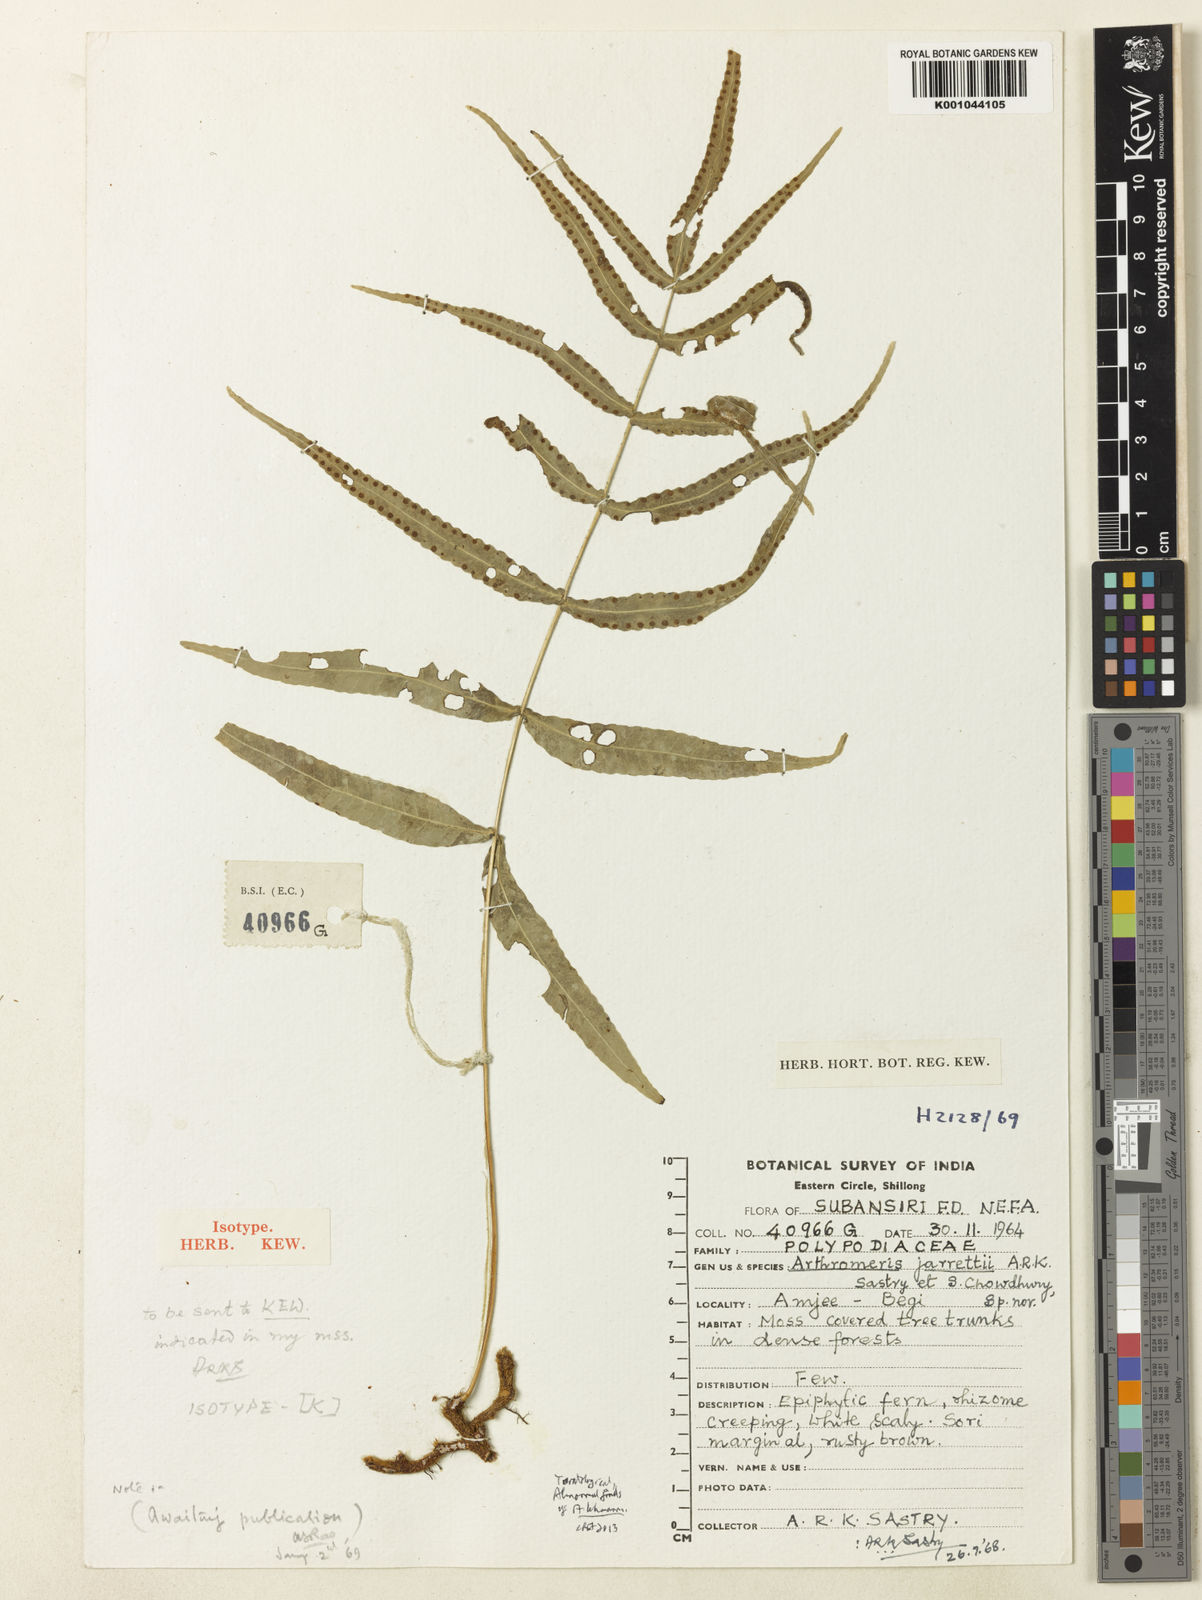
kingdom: Plantae
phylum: Tracheophyta
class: Polypodiopsida
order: Polypodiales
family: Polypodiaceae
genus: Selliguea
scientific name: Selliguea lehmannii
